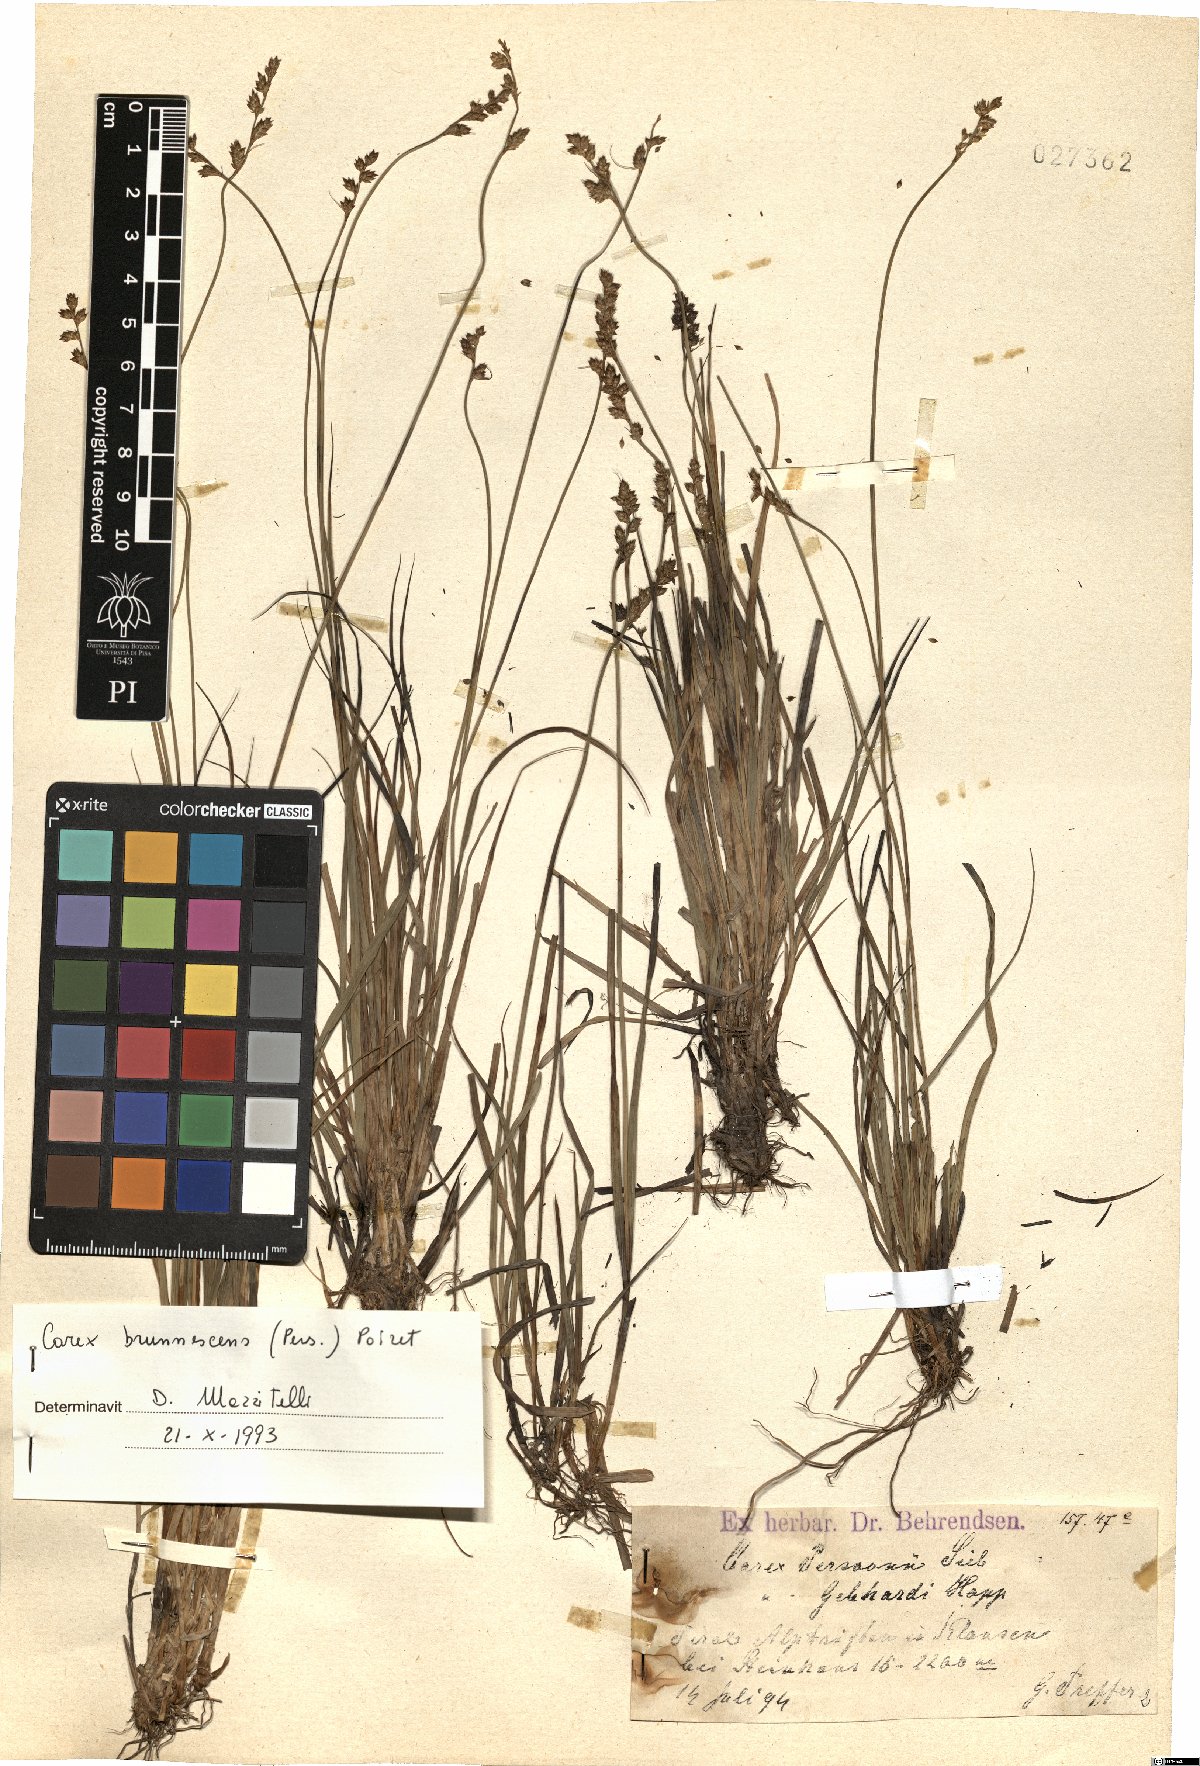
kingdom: Plantae
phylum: Tracheophyta
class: Liliopsida
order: Poales
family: Cyperaceae
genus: Carex
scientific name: Carex brunnescens
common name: Brown sedge
